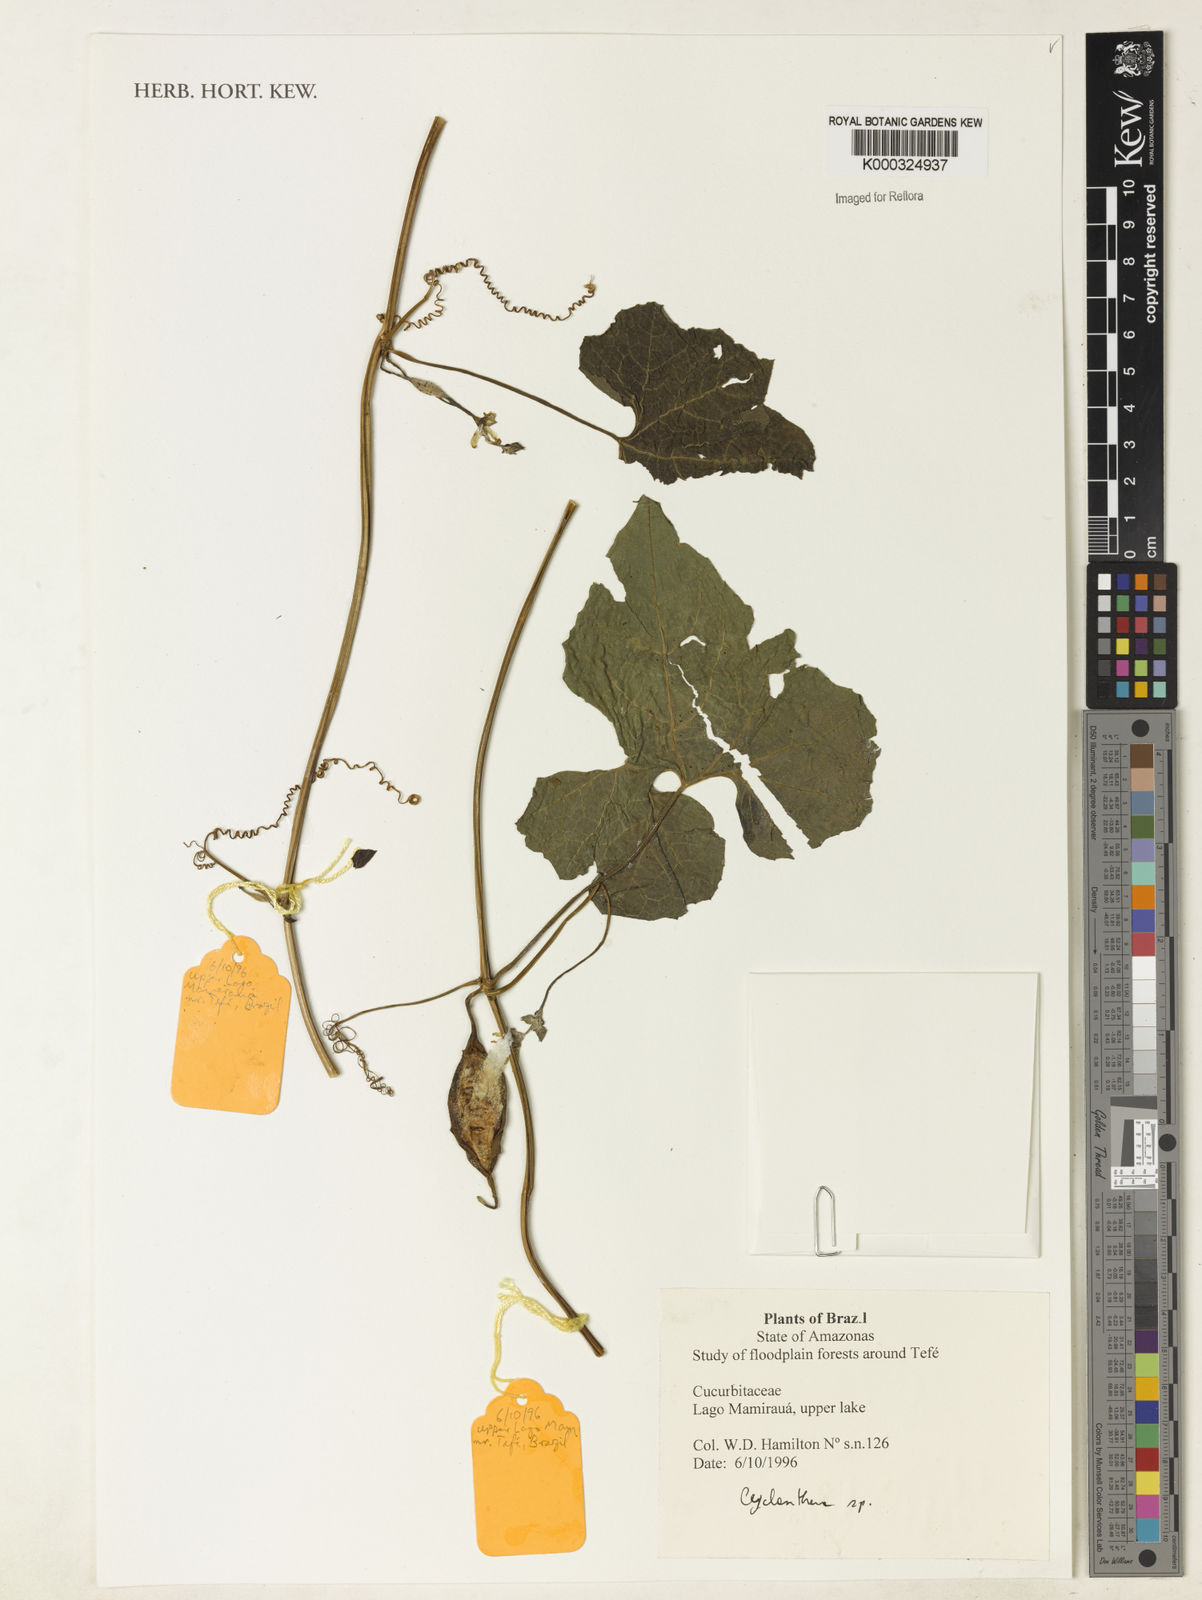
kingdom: Plantae
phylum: Tracheophyta
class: Magnoliopsida
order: Cucurbitales
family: Cucurbitaceae
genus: Cyclanthera
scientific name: Cyclanthera
